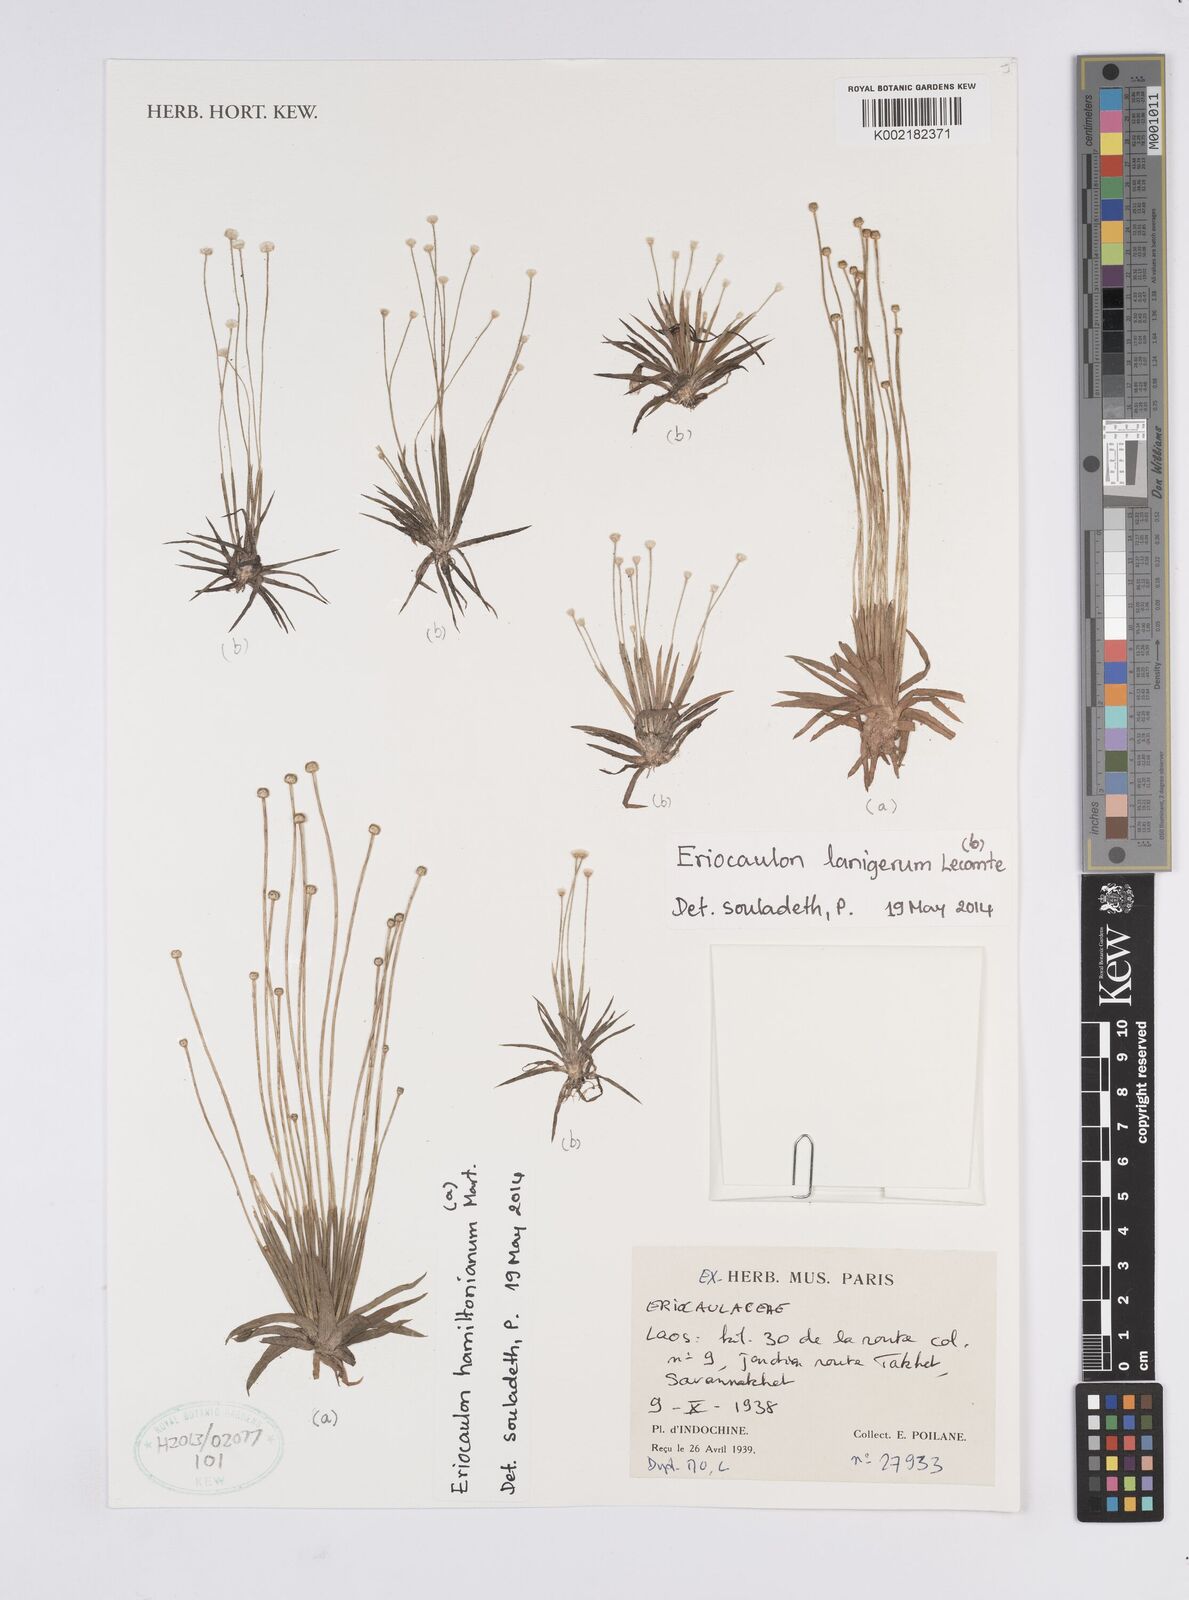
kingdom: Plantae
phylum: Tracheophyta
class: Liliopsida
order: Poales
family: Eriocaulaceae
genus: Eriocaulon
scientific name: Eriocaulon lanigerum
